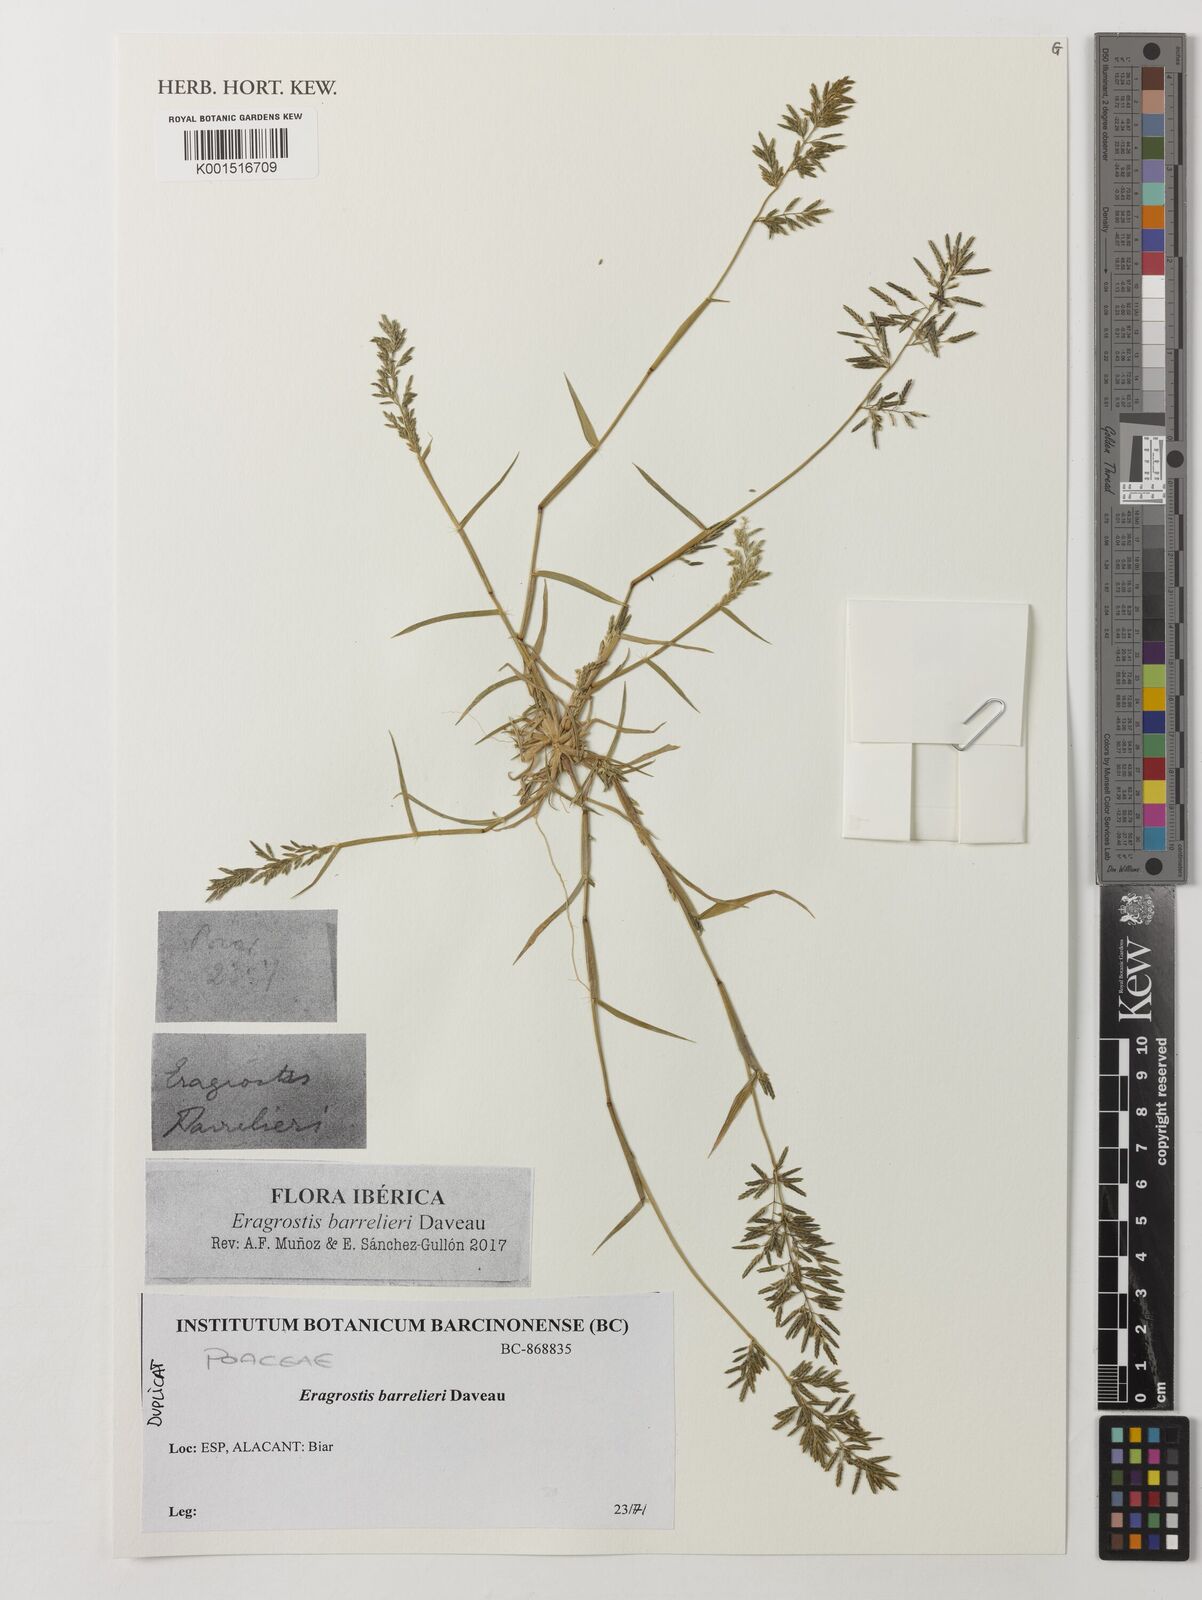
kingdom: Plantae
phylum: Tracheophyta
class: Liliopsida
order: Poales
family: Poaceae
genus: Eragrostis
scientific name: Eragrostis barrelieri
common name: Mediterranean lovegrass
